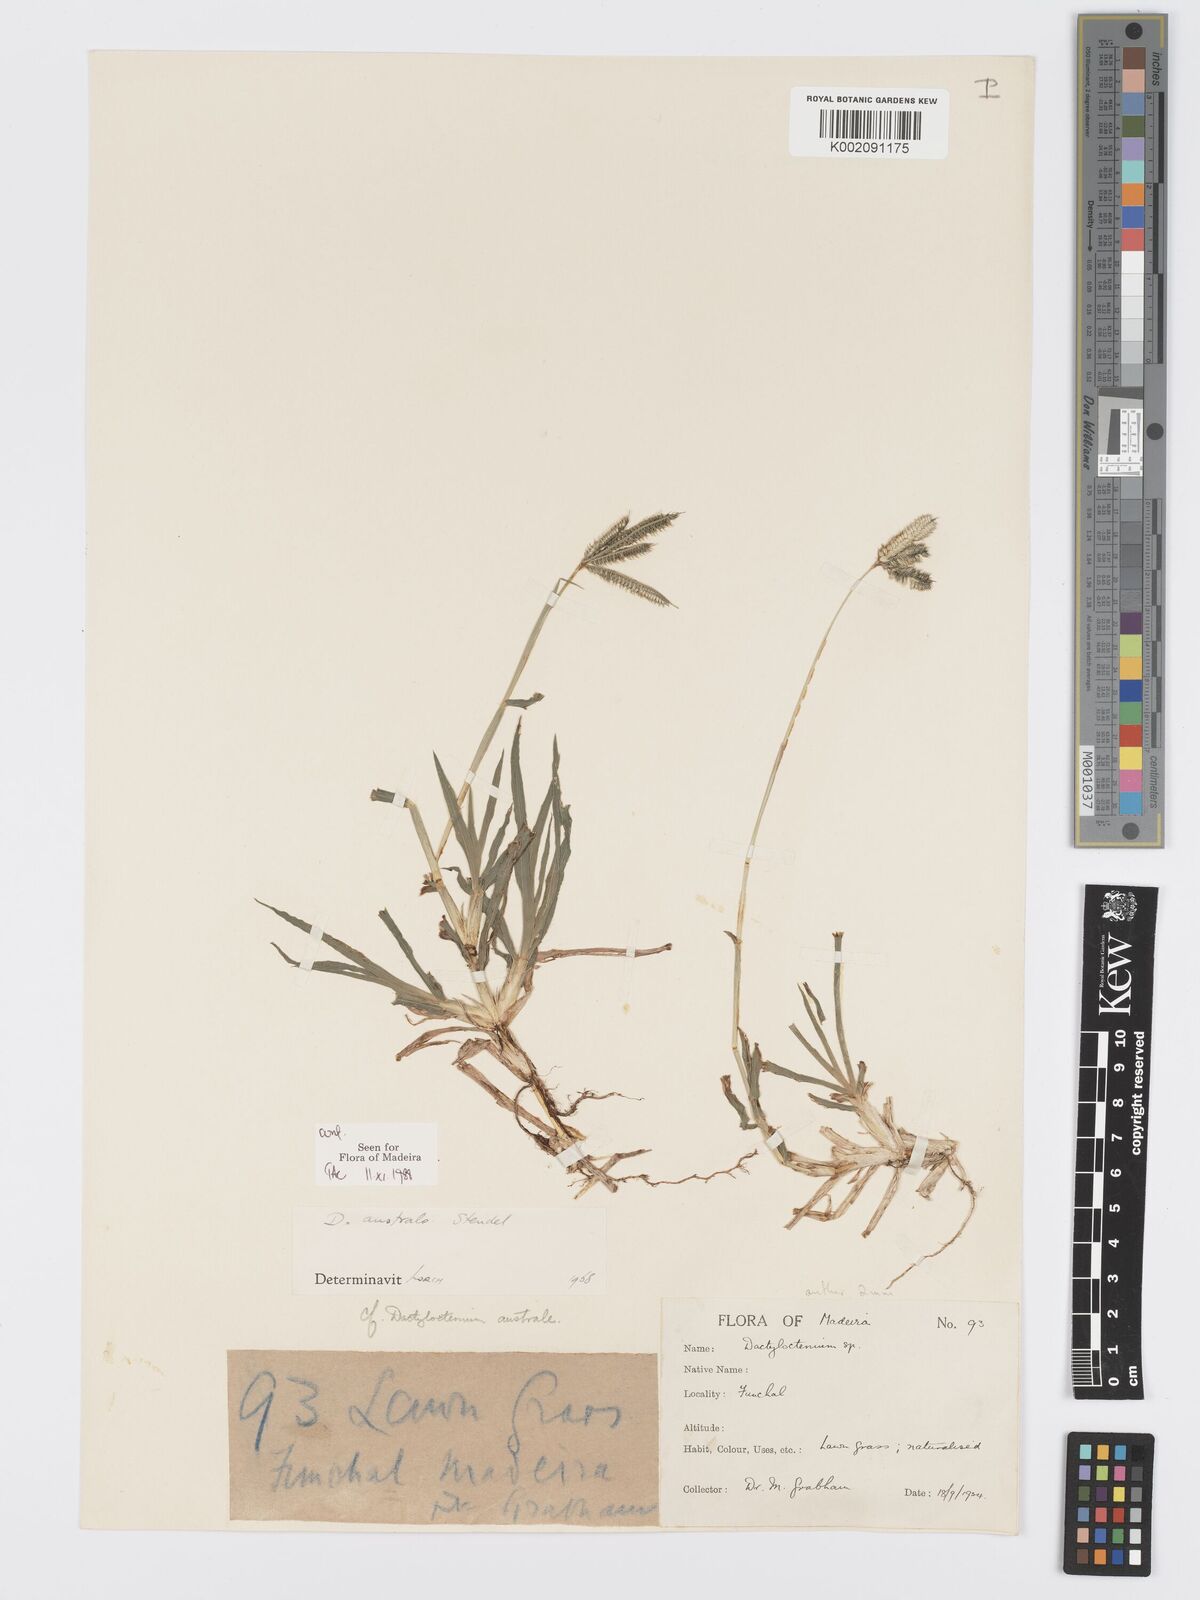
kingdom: Plantae
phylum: Tracheophyta
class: Liliopsida
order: Poales
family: Poaceae
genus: Dactyloctenium
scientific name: Dactyloctenium australe
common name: Durban grass
